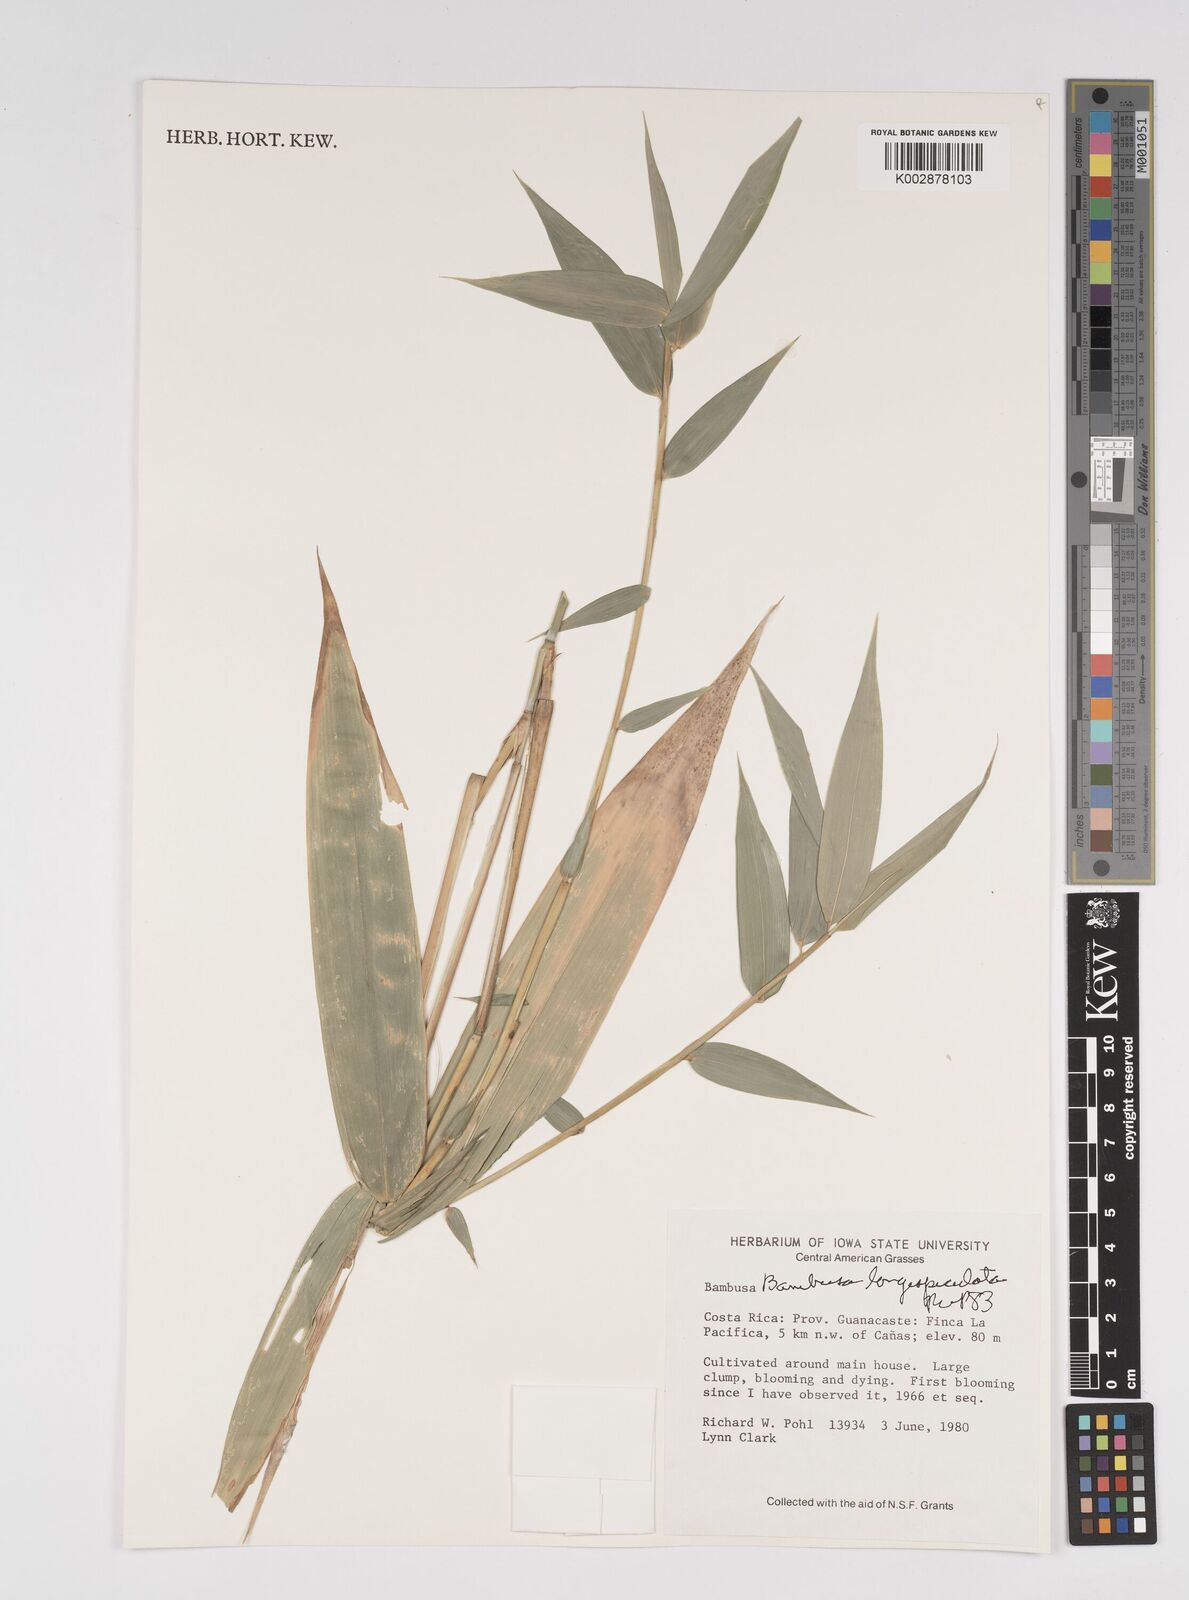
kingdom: Plantae
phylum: Tracheophyta
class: Liliopsida
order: Poales
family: Poaceae
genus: Bambusa
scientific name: Bambusa longispiculata
